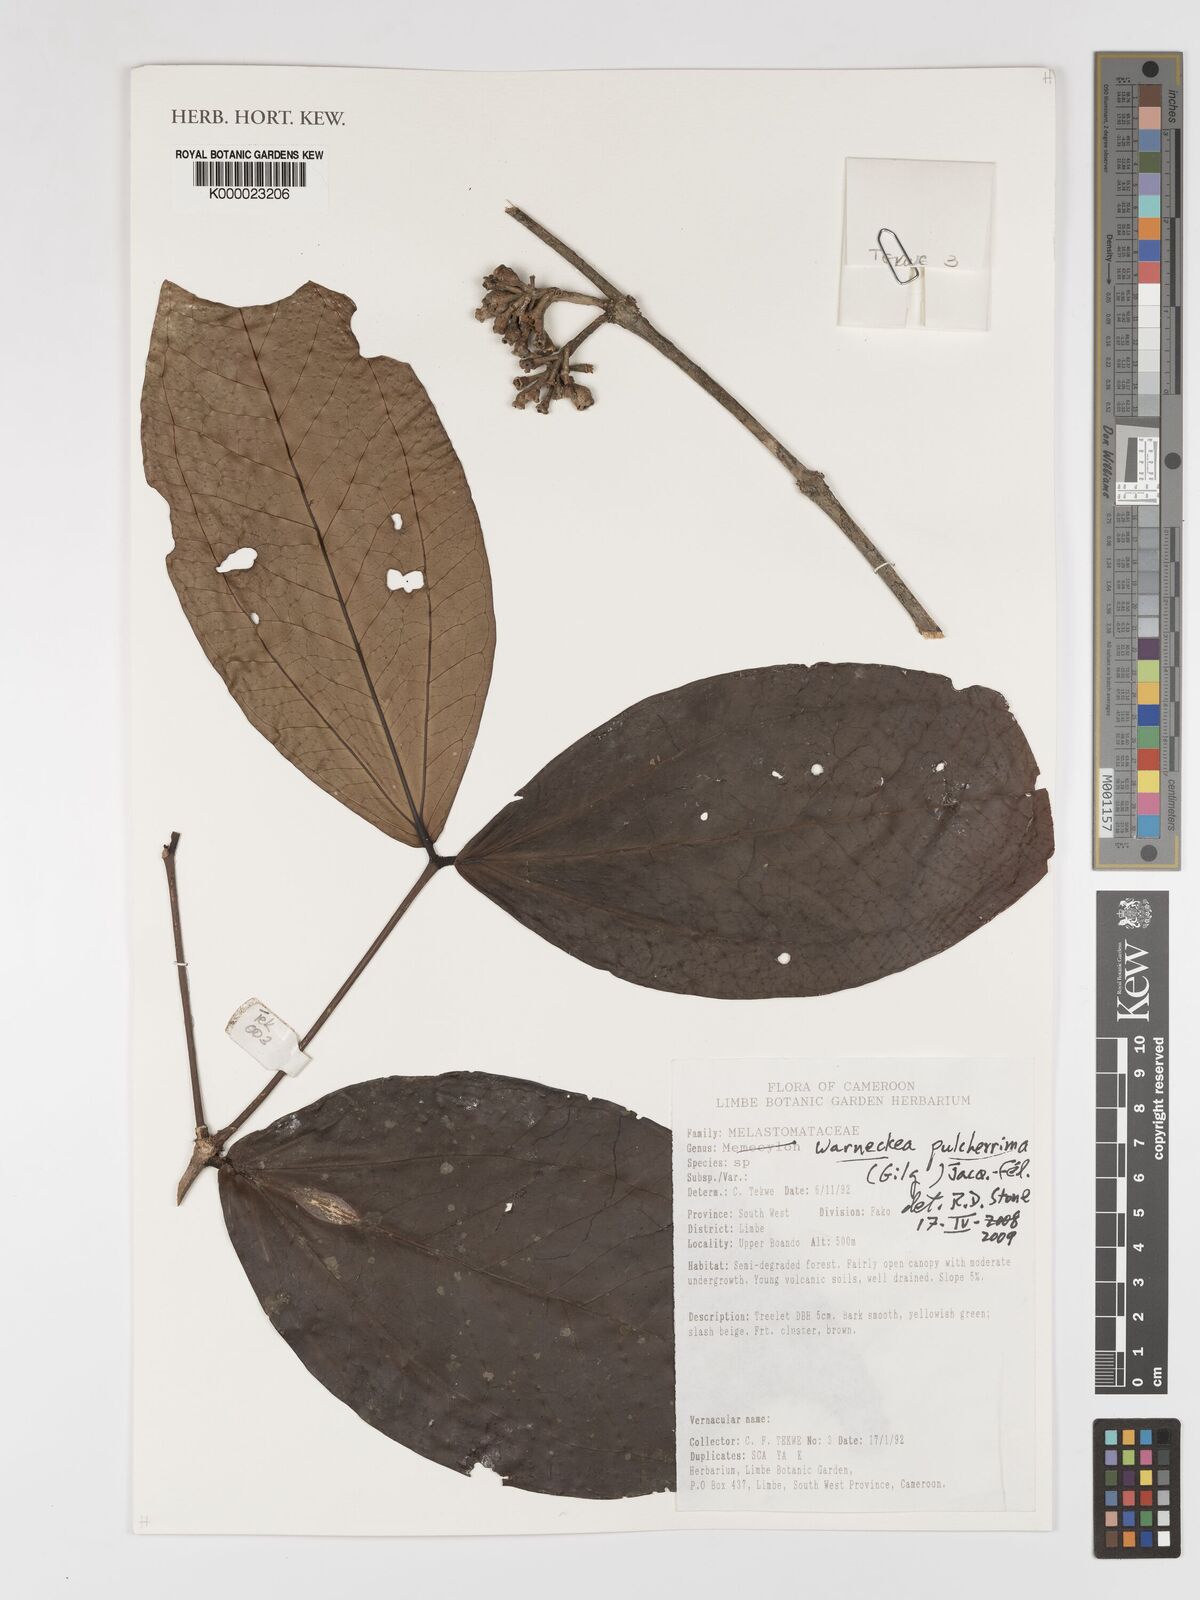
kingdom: Plantae
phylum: Tracheophyta
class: Magnoliopsida
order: Myrtales
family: Melastomataceae
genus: Warneckea
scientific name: Warneckea
